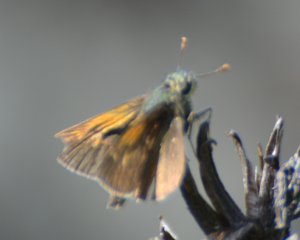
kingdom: Animalia
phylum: Arthropoda
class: Insecta
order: Lepidoptera
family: Hesperiidae
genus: Polites
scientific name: Polites themistocles
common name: Tawny-edged Skipper
